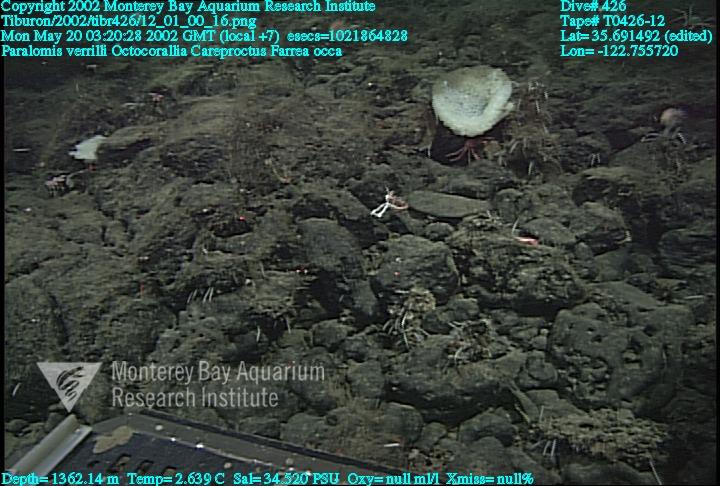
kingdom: Animalia
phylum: Porifera
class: Hexactinellida
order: Sceptrulophora
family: Farreidae
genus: Farrea
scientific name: Farrea occa
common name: Reversed glass sponge
